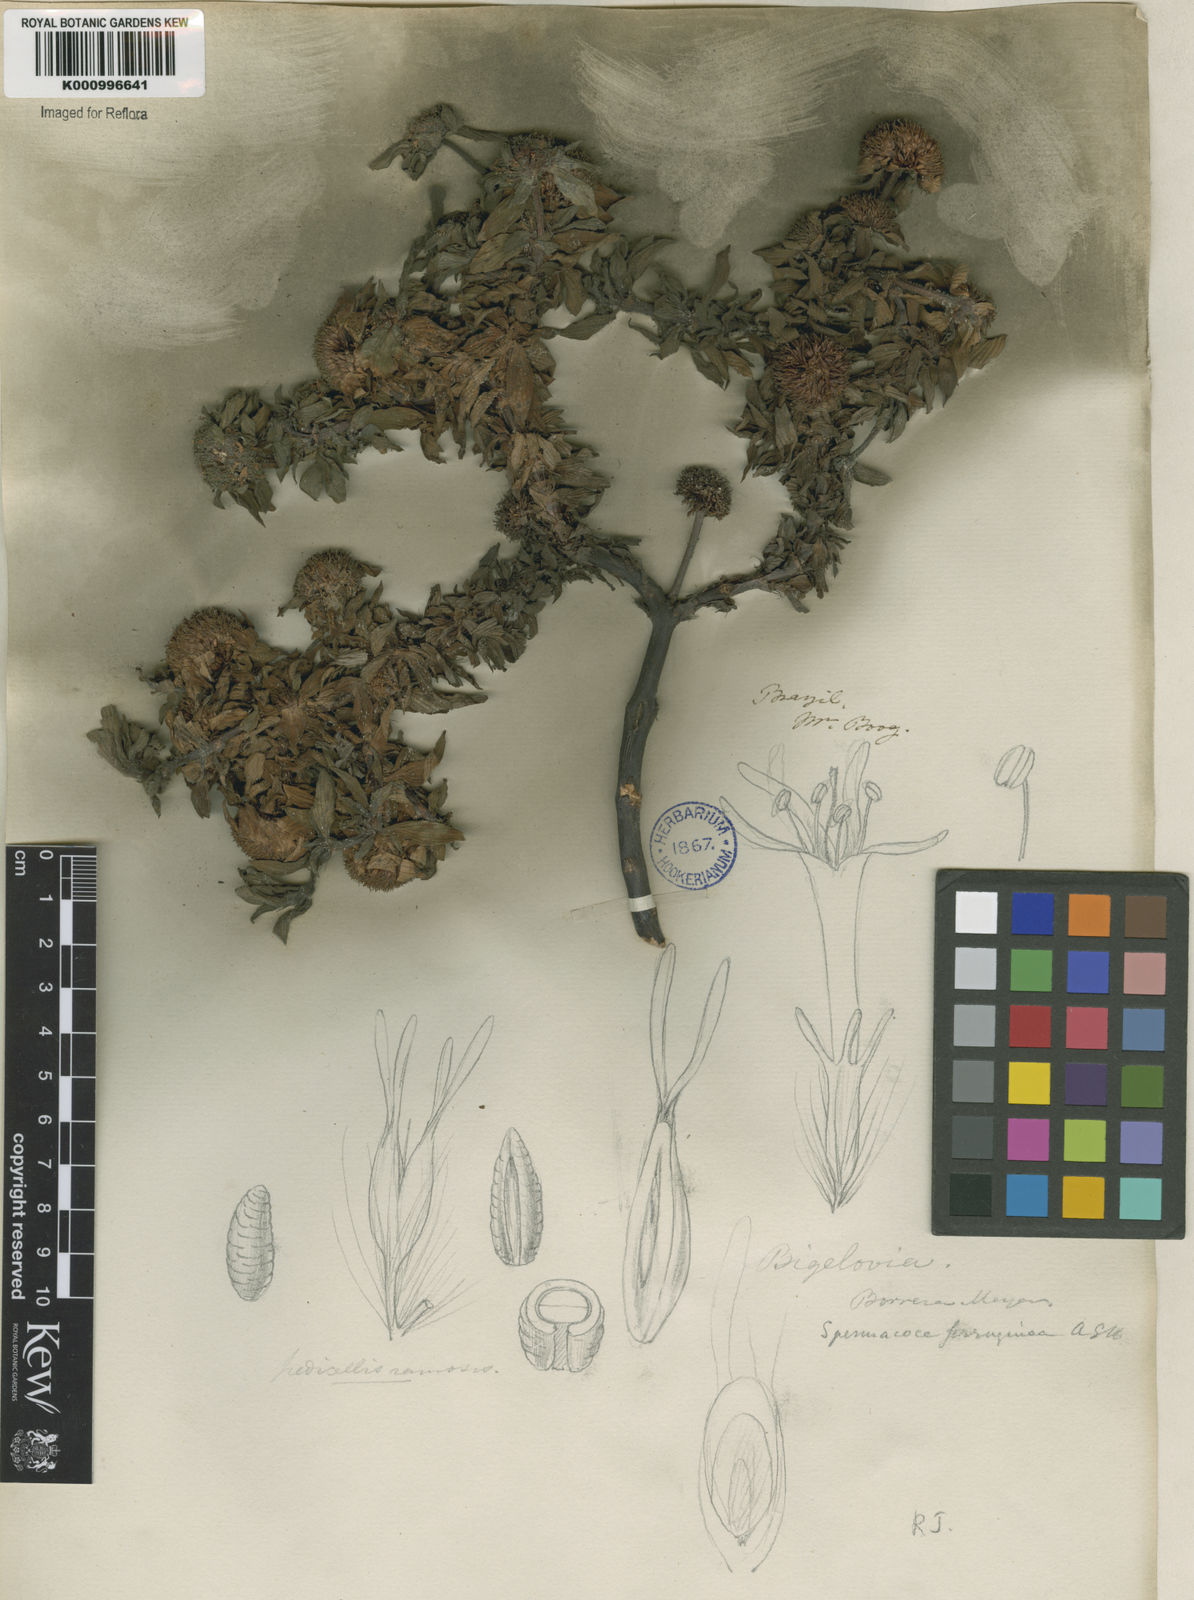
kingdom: Plantae
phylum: Tracheophyta
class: Magnoliopsida
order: Gentianales
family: Rubiaceae
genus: Spermacoce
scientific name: Spermacoce
